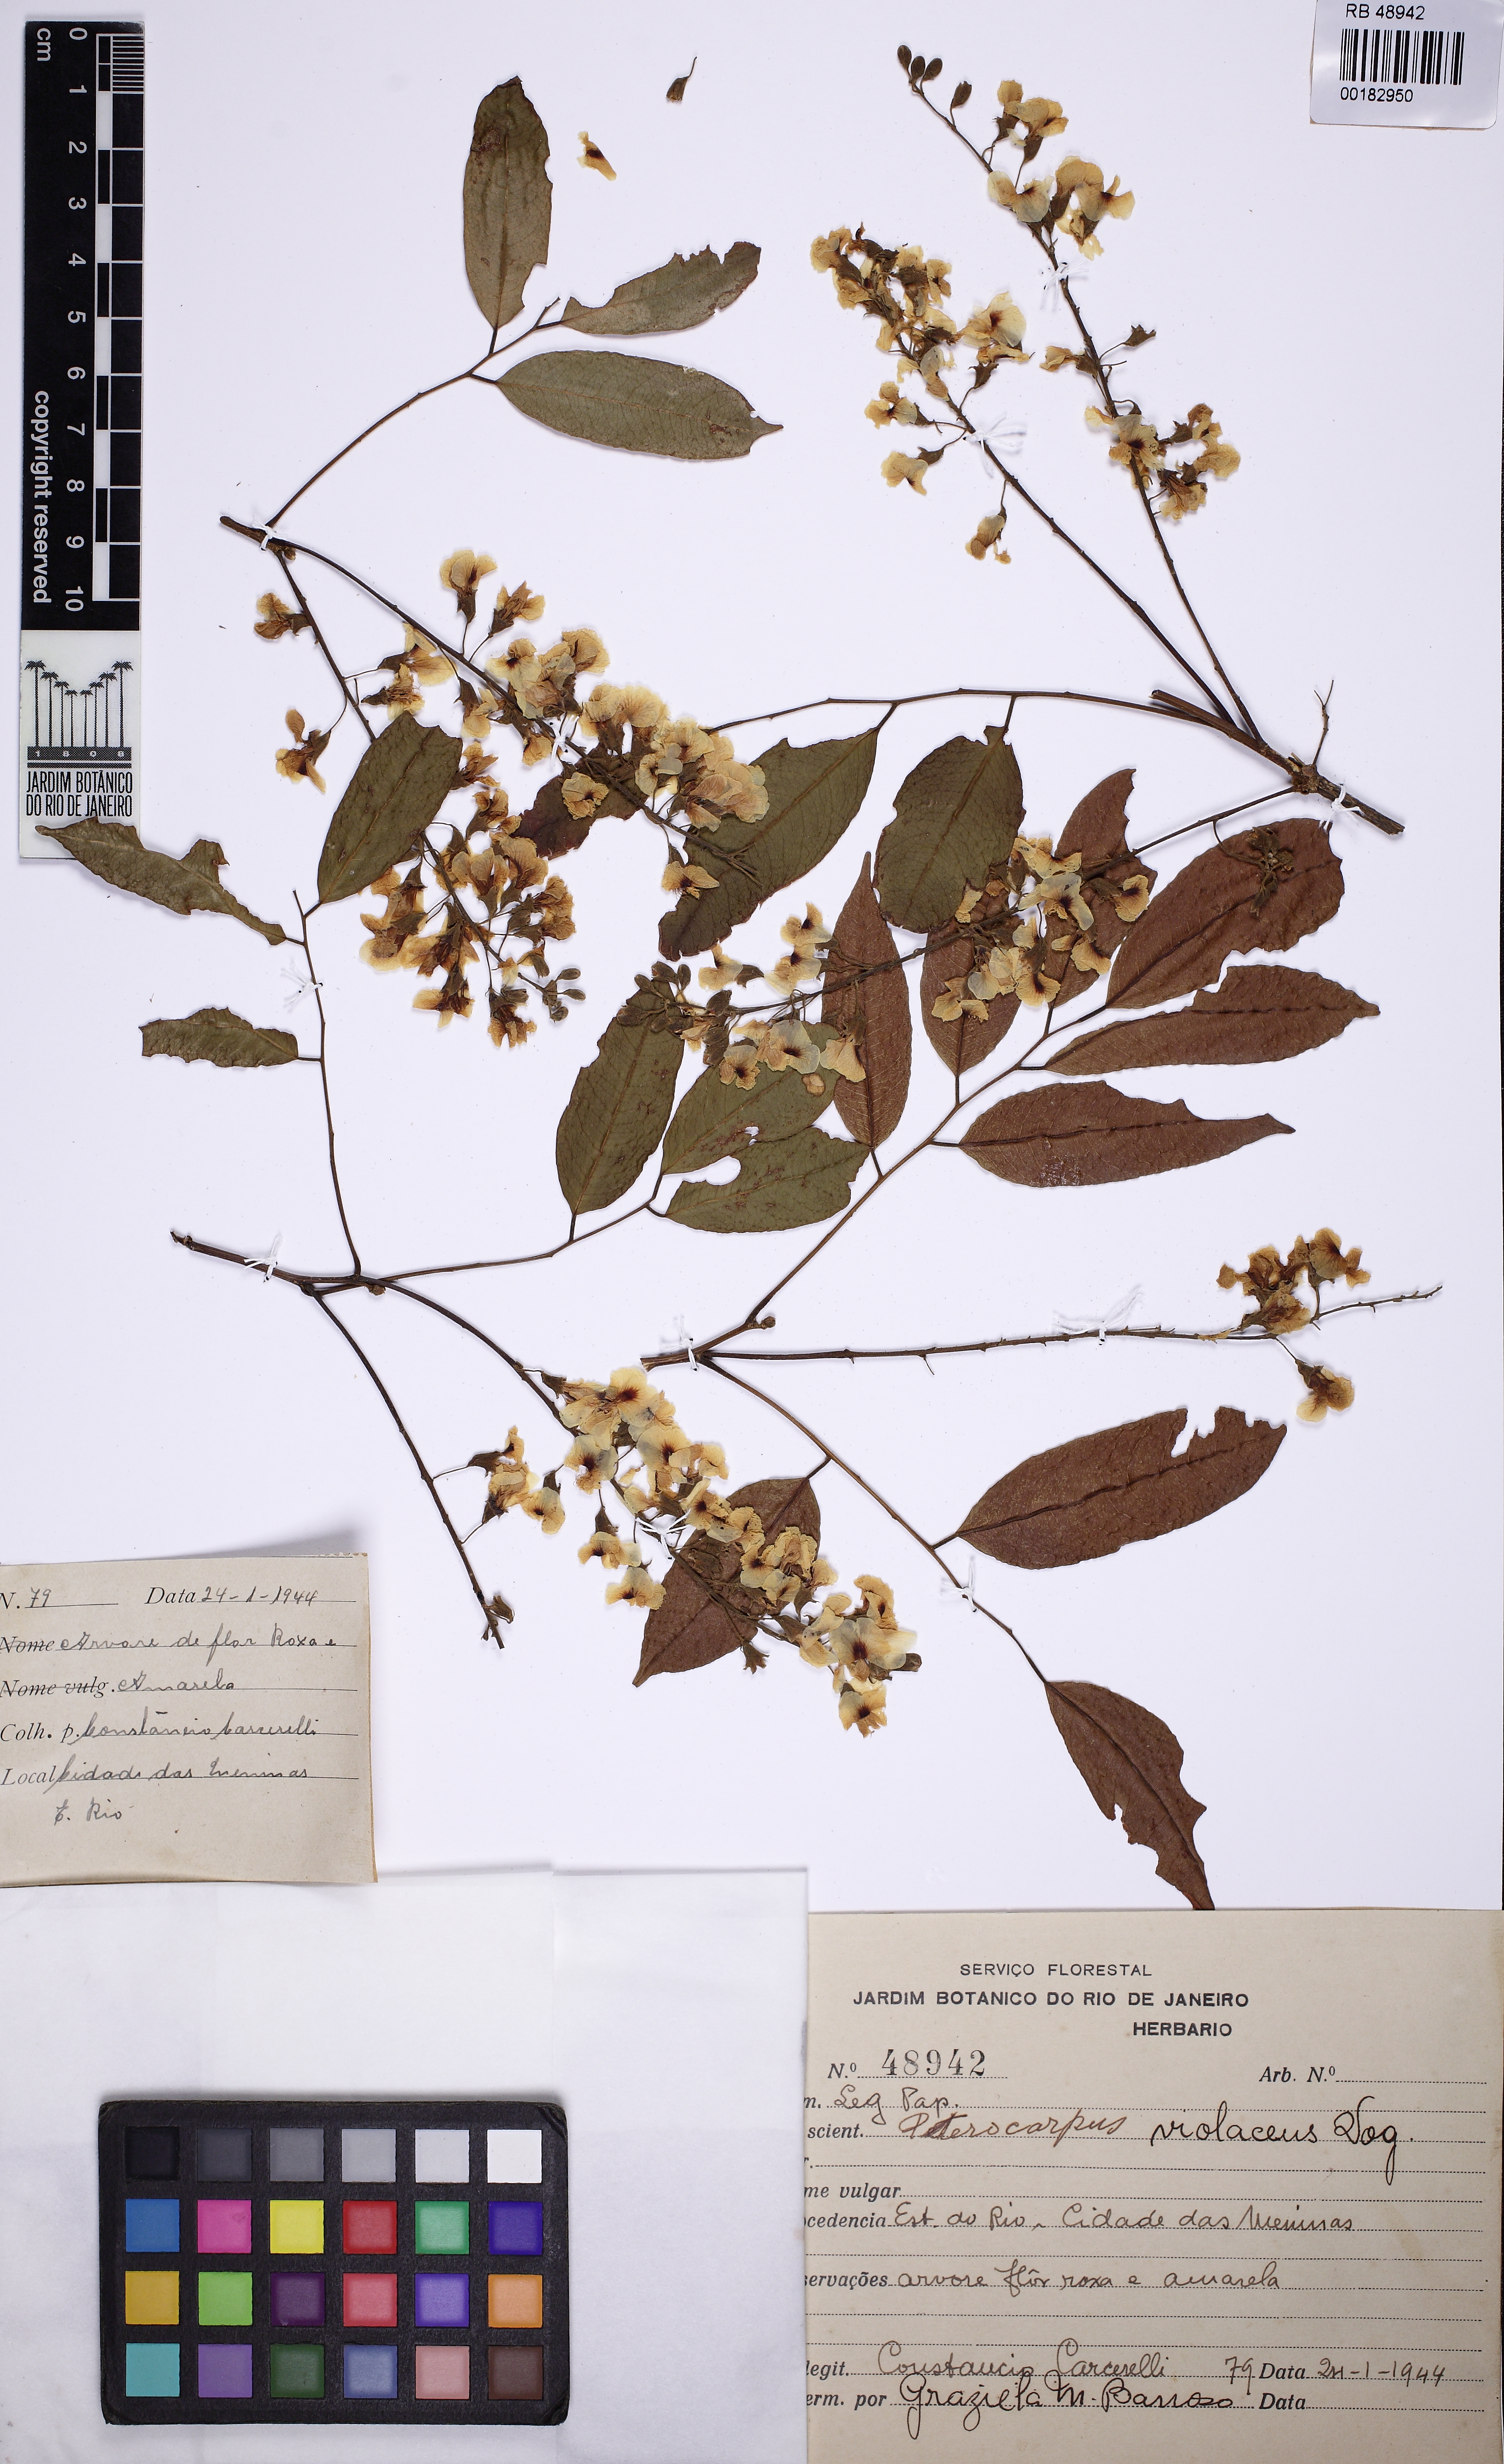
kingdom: Plantae
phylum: Tracheophyta
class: Magnoliopsida
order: Fabales
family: Fabaceae
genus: Pterocarpus
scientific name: Pterocarpus rohrii
